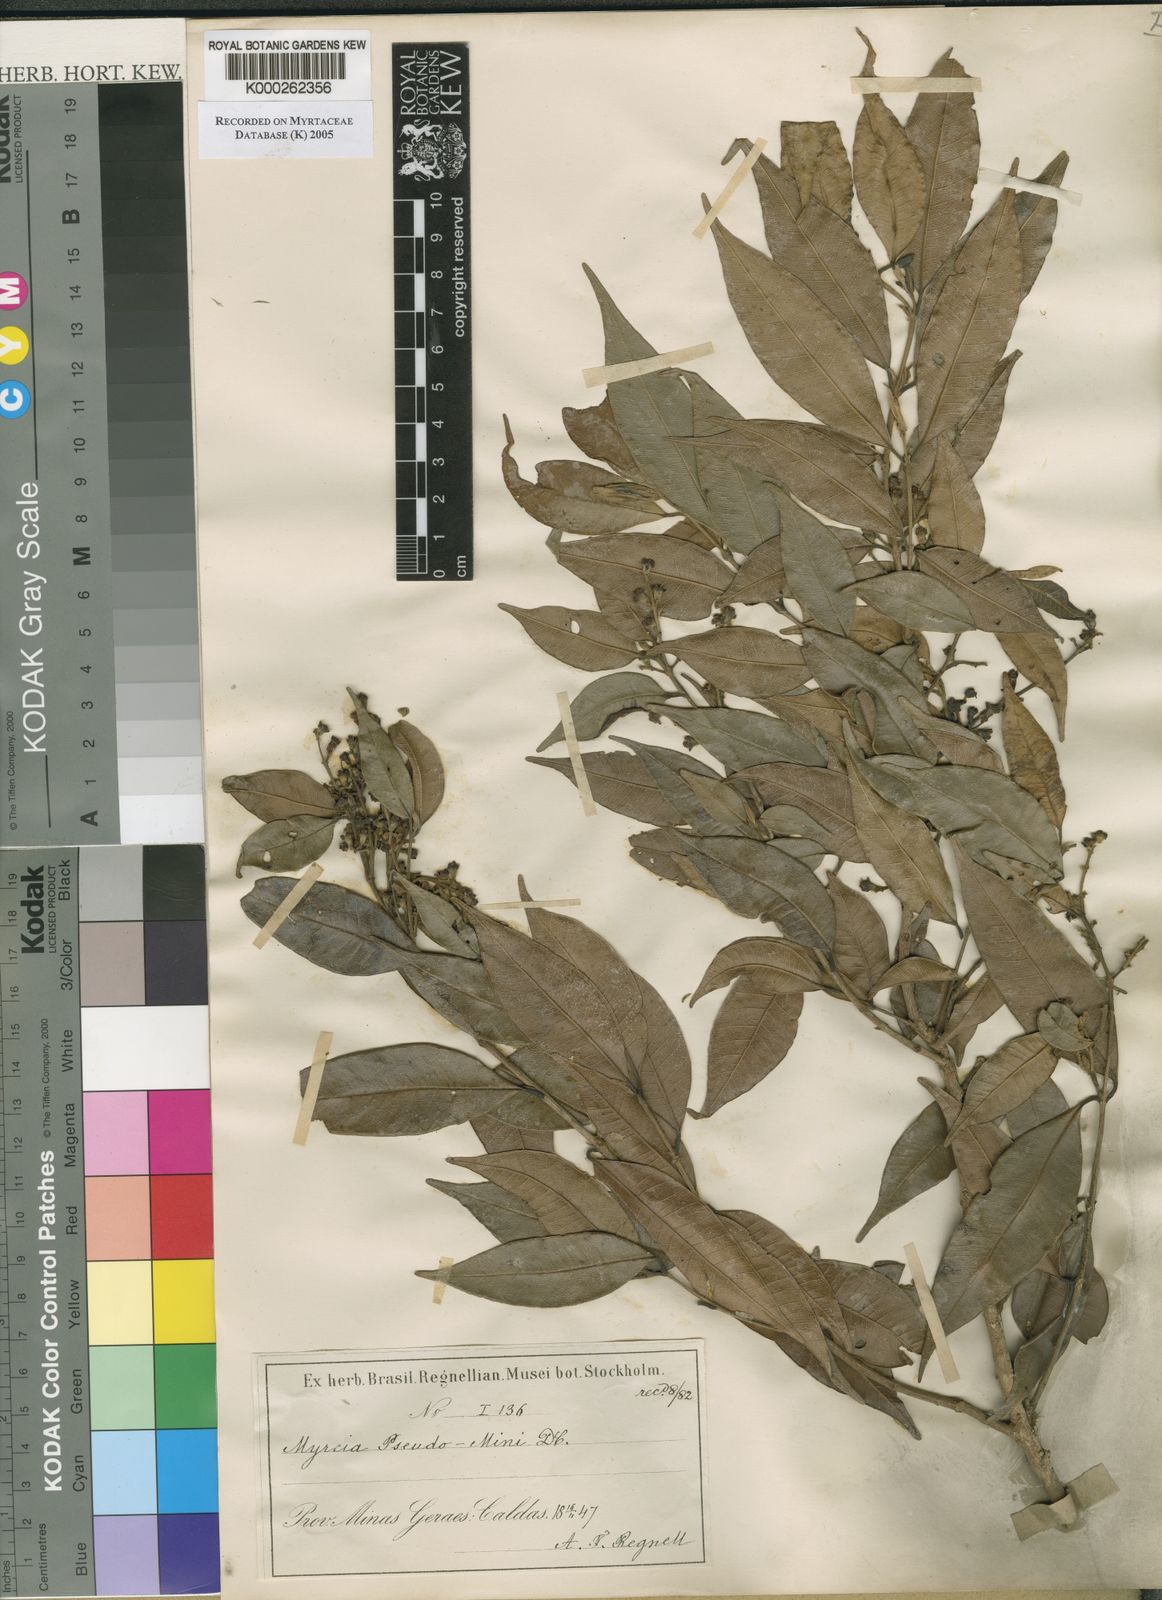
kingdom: Plantae
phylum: Tracheophyta
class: Magnoliopsida
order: Myrtales
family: Myrtaceae
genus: Myrcia
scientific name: Myrcia splendens
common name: Surinam cherry
